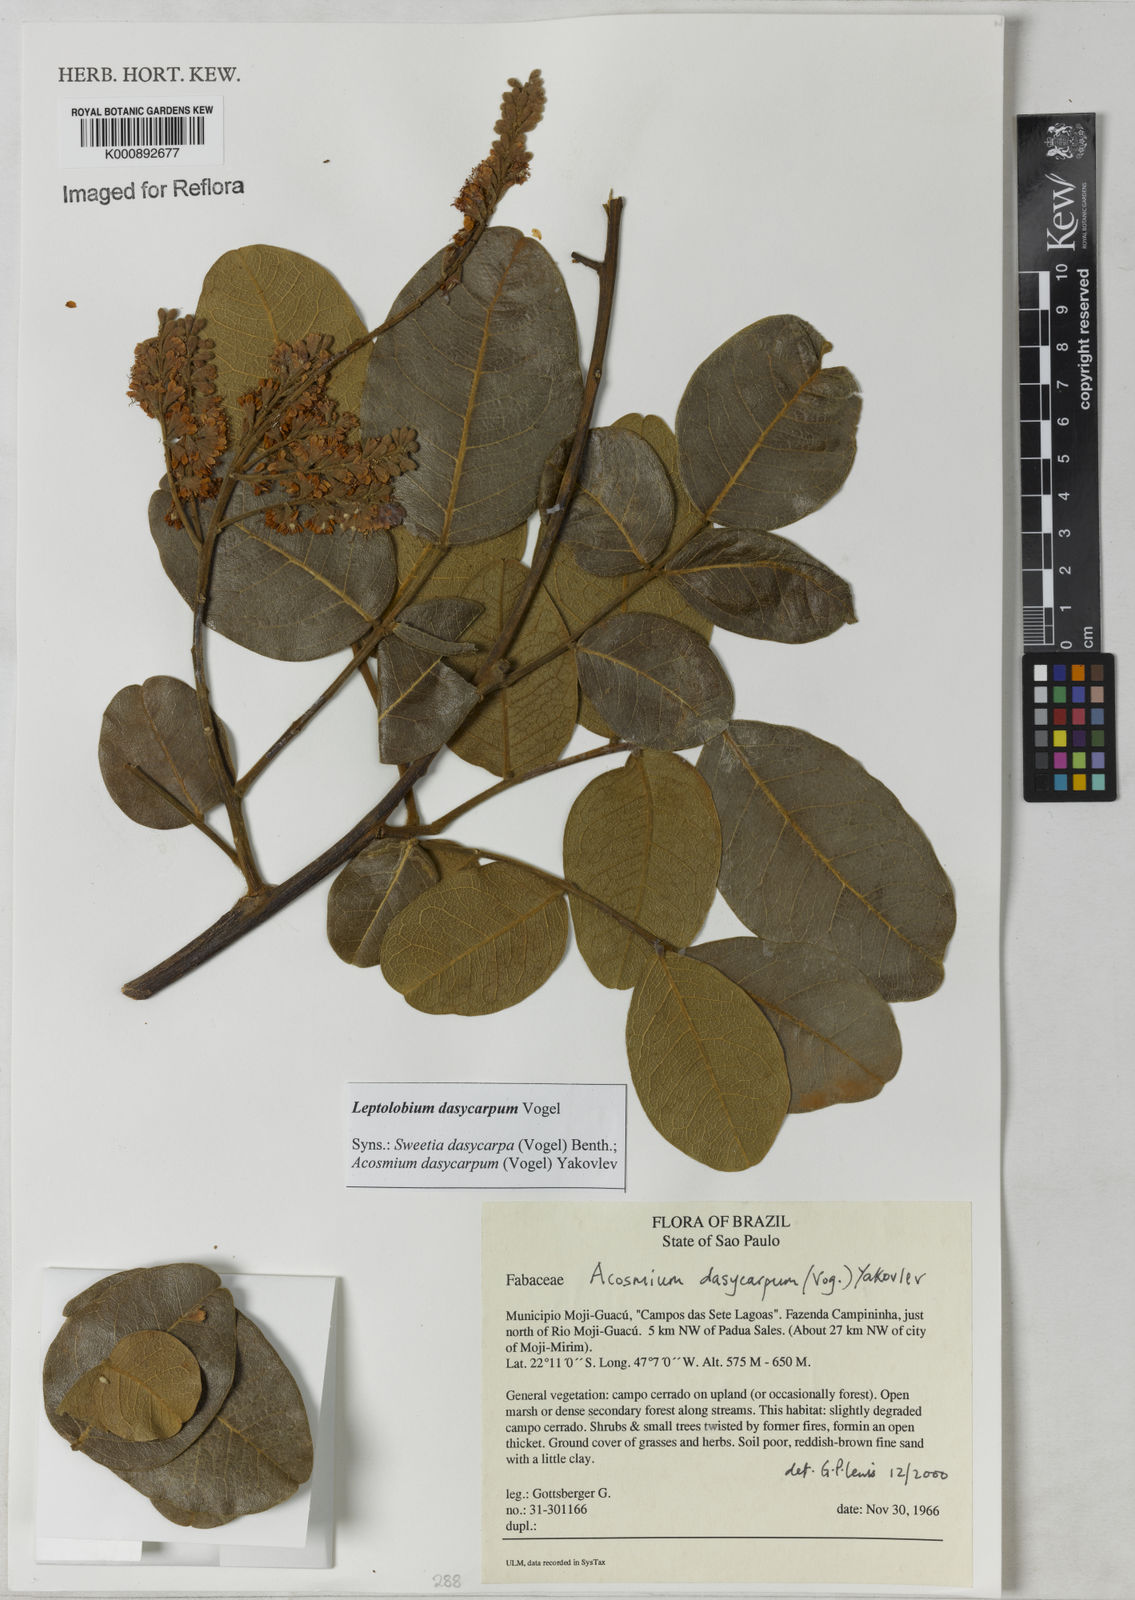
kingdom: Plantae
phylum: Tracheophyta
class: Magnoliopsida
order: Fabales
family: Fabaceae
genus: Leptolobium
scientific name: Leptolobium dasycarpum
